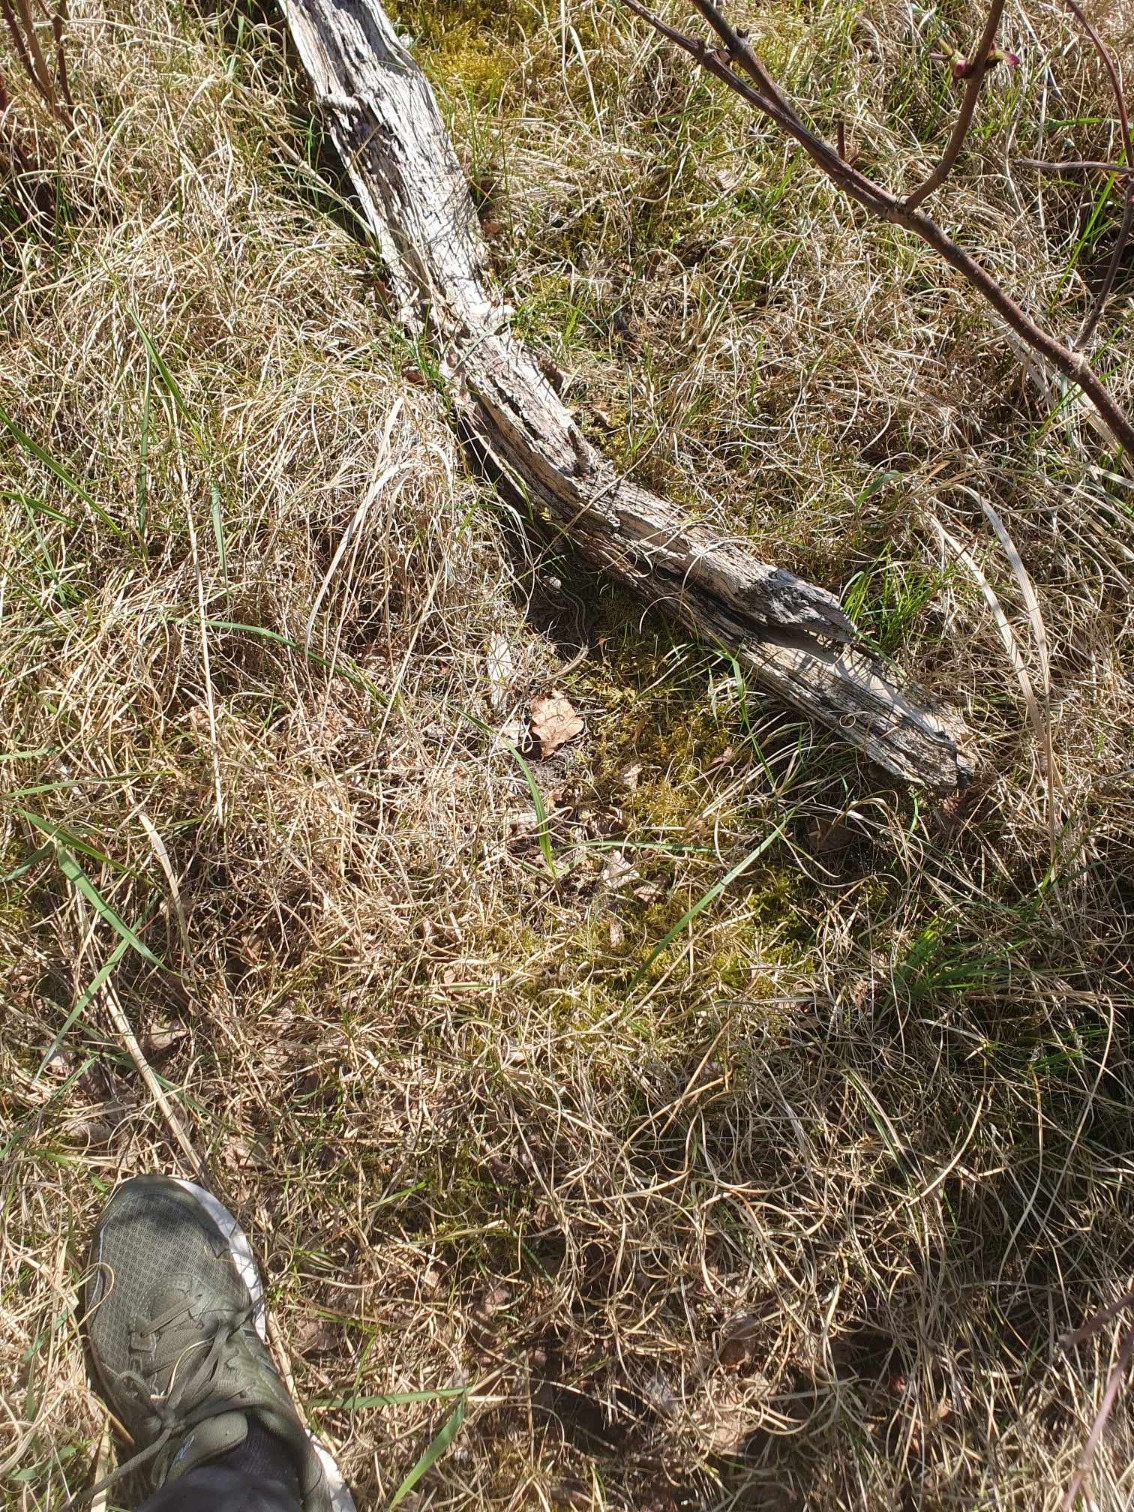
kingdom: Animalia
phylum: Chordata
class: Squamata
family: Lacertidae
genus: Lacerta
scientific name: Lacerta agilis
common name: Markfirben
